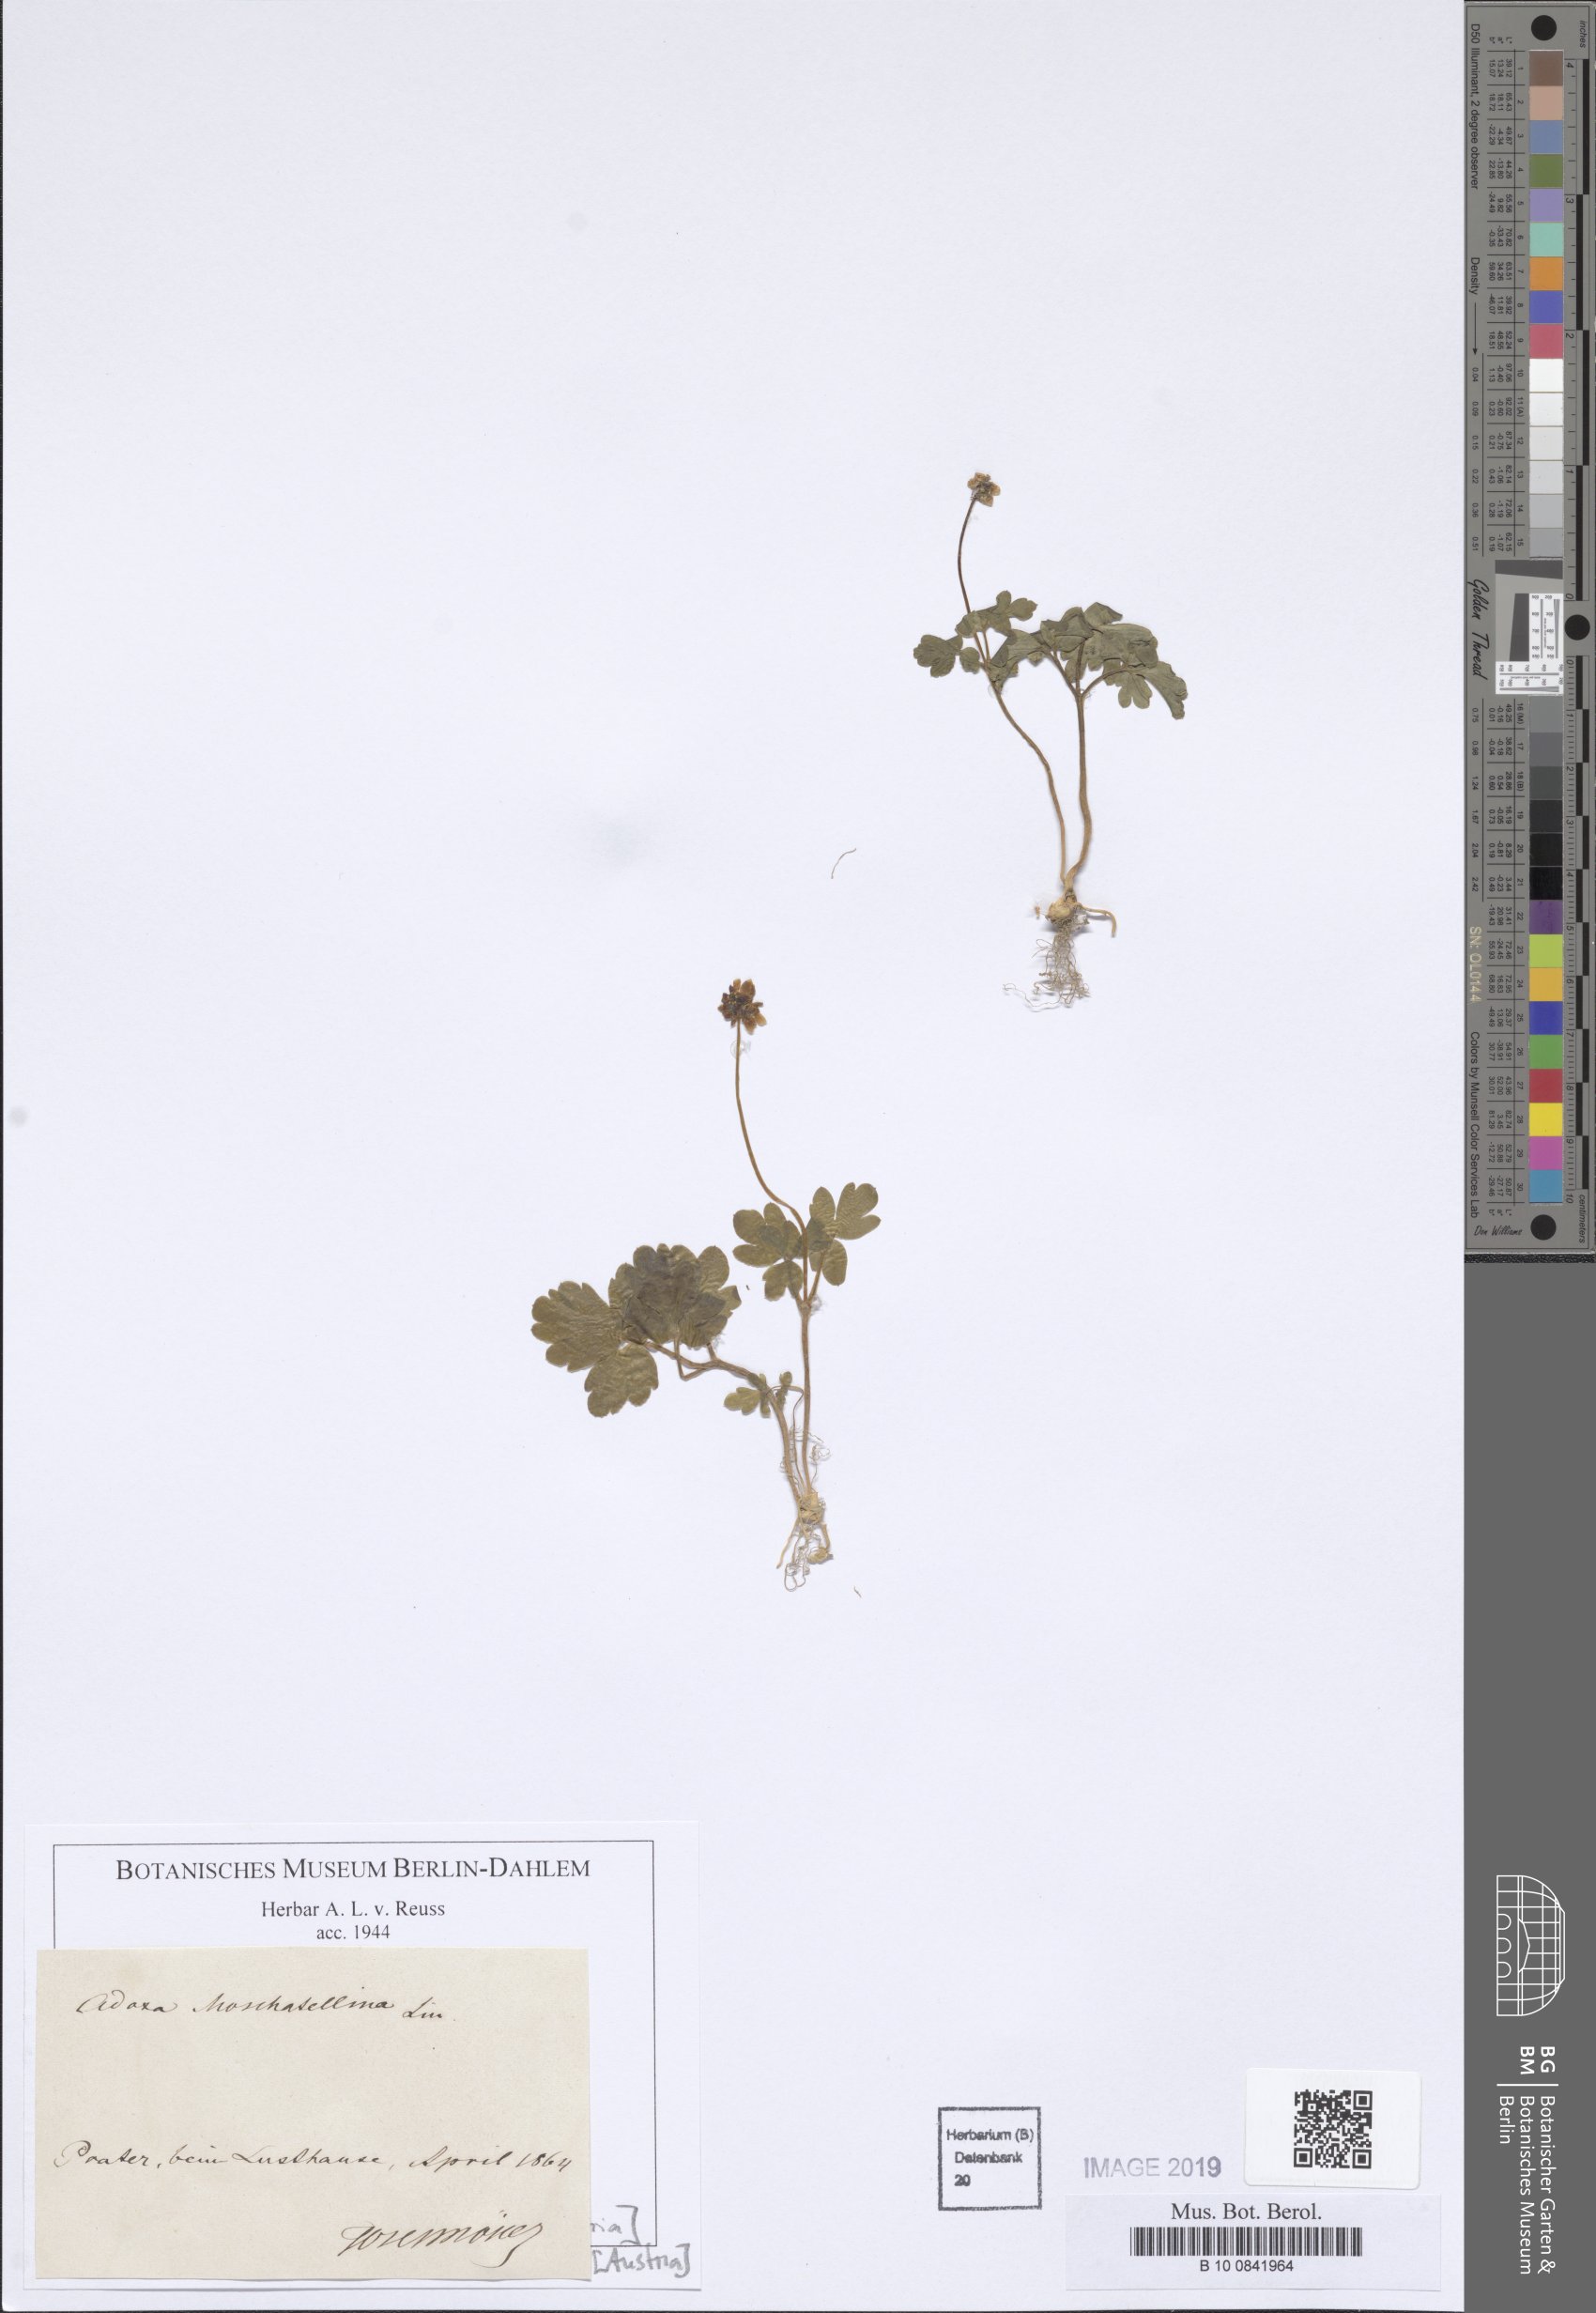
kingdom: Plantae
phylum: Tracheophyta
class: Magnoliopsida
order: Dipsacales
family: Viburnaceae
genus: Adoxa
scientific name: Adoxa moschatellina
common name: Moschatel
